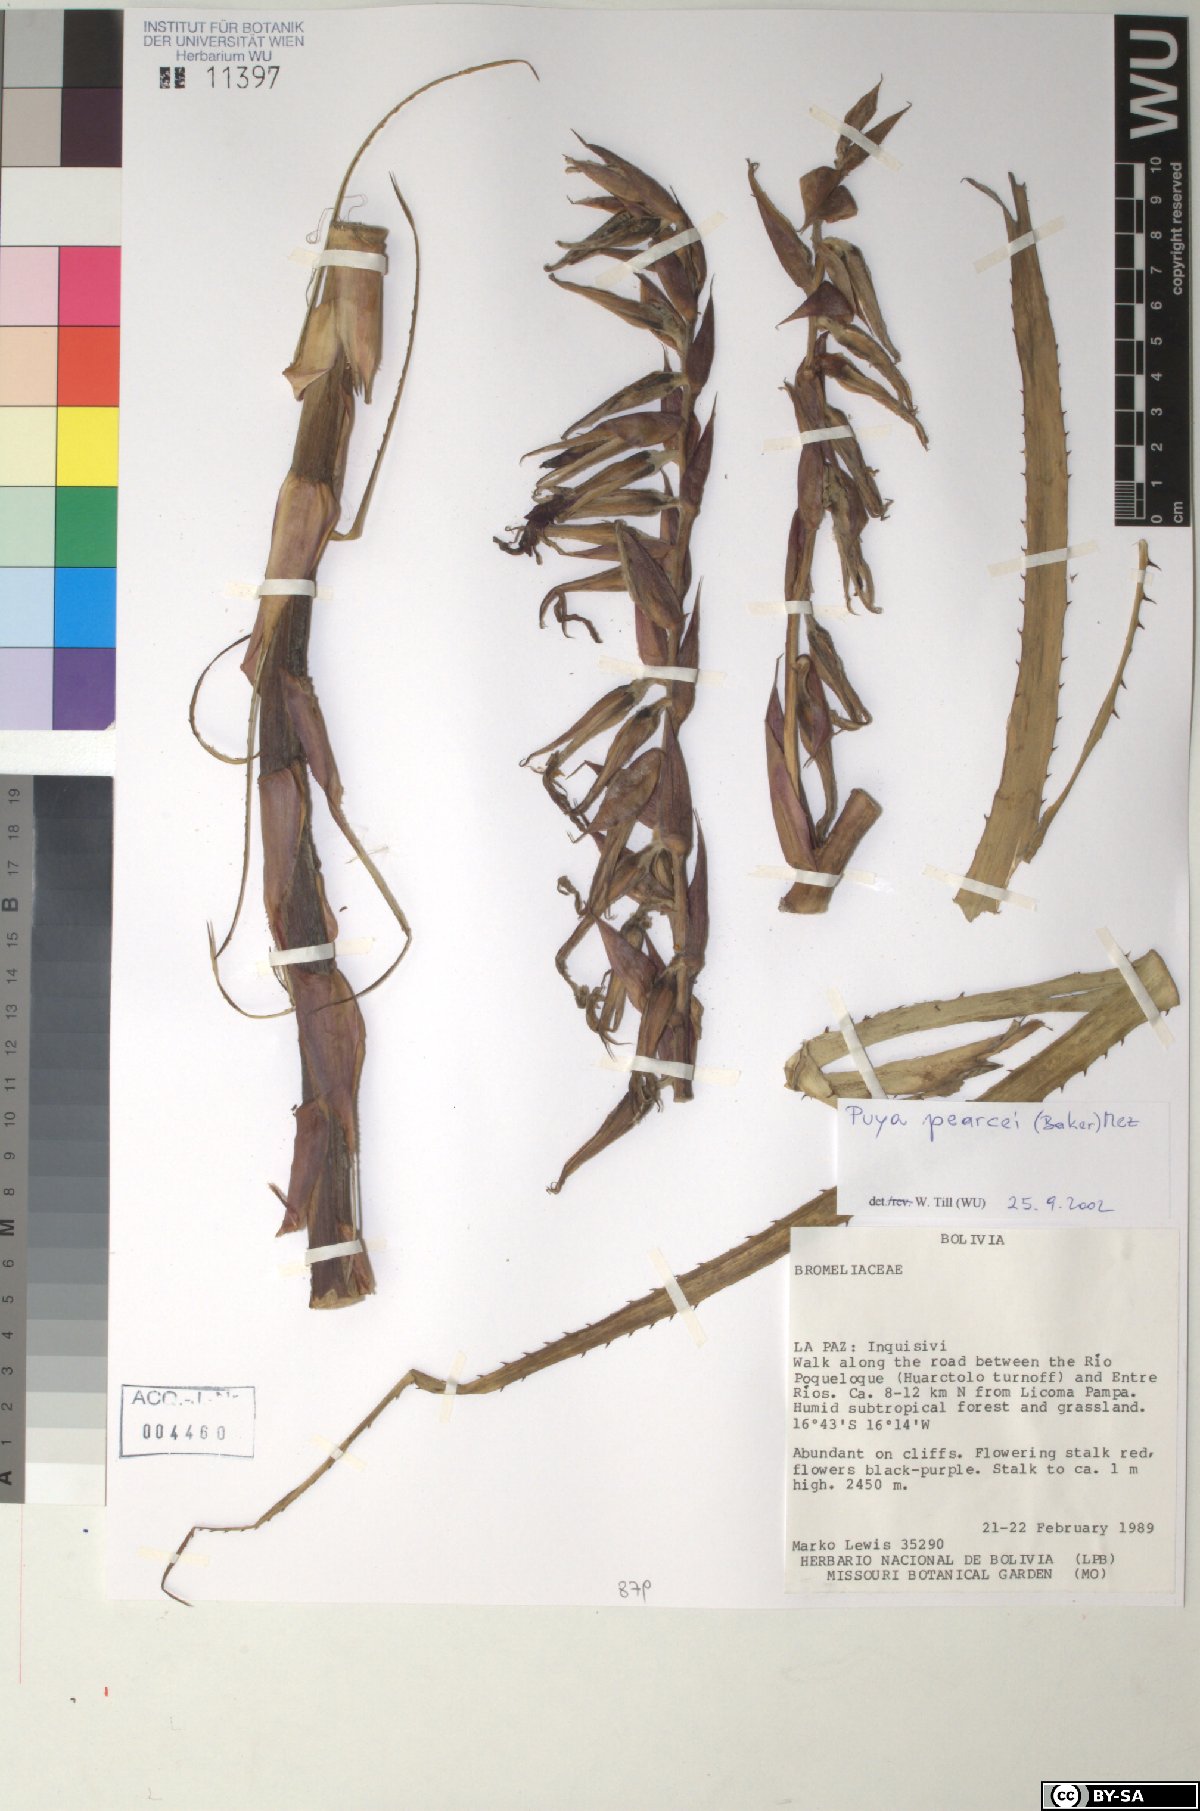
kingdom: Plantae
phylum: Tracheophyta
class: Liliopsida
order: Poales
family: Bromeliaceae
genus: Puya
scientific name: Puya pearcei
